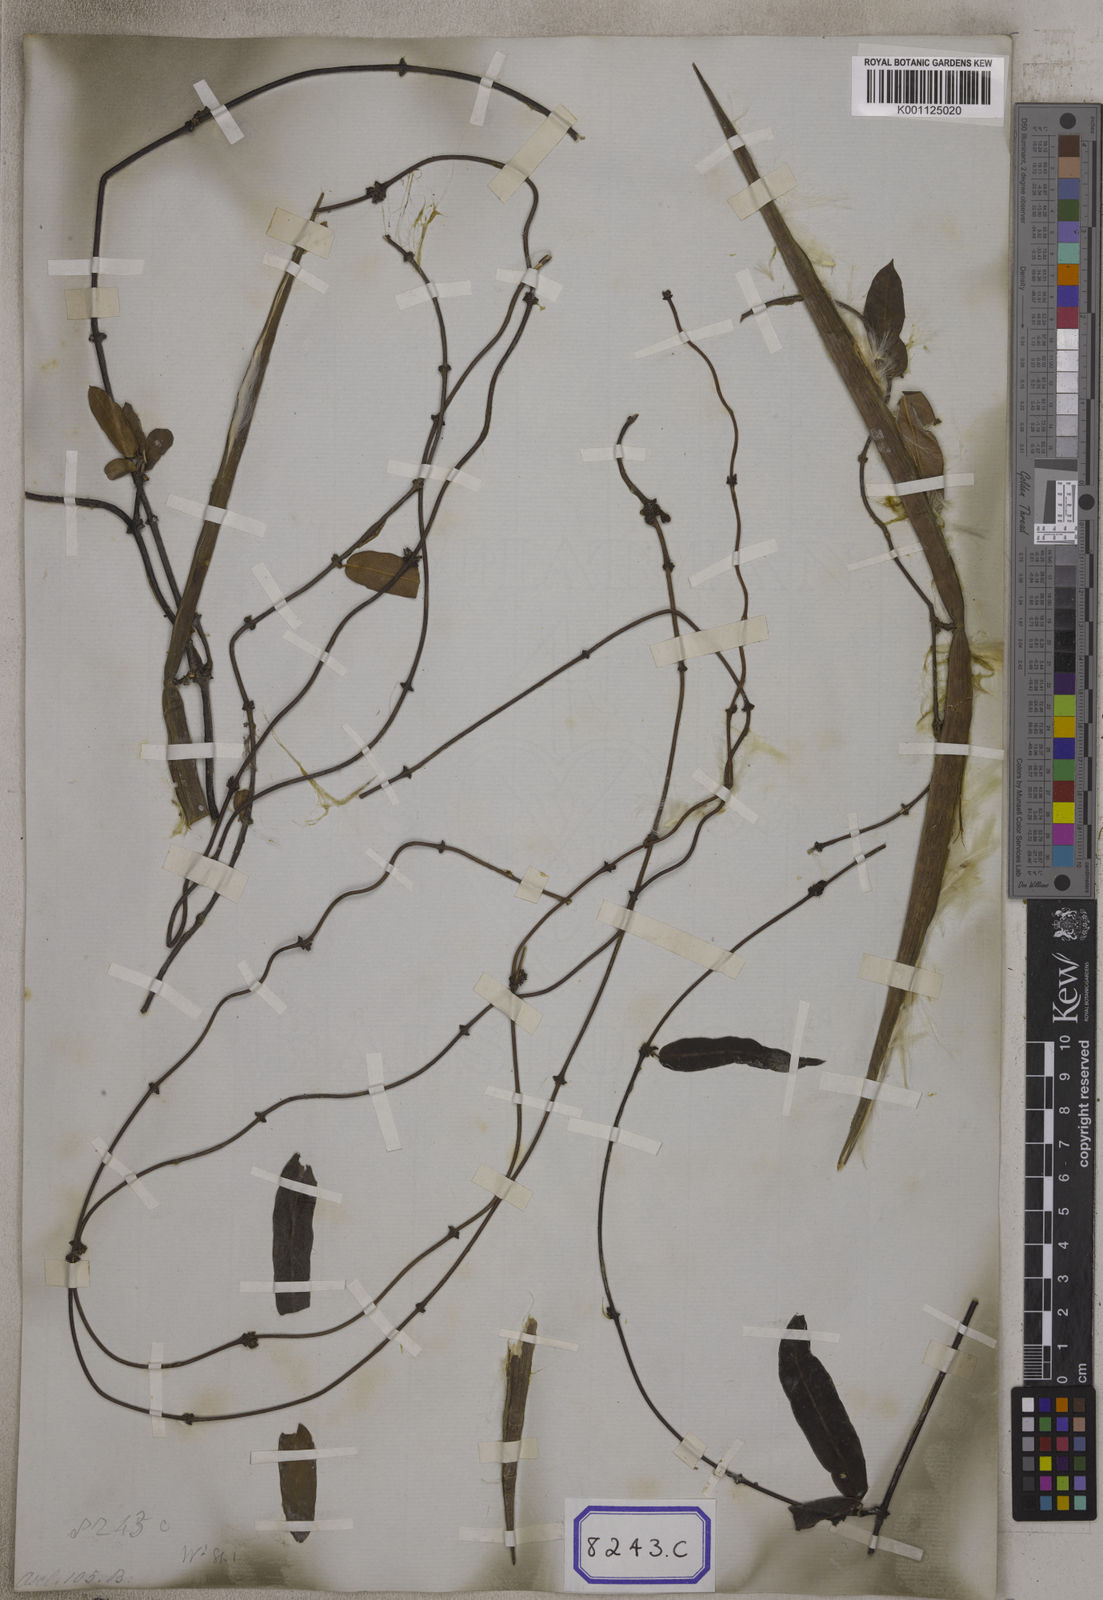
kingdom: Plantae
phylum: Tracheophyta
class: Magnoliopsida
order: Gentianales
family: Apocynaceae
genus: Hemidesmus
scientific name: Hemidesmus indicus
